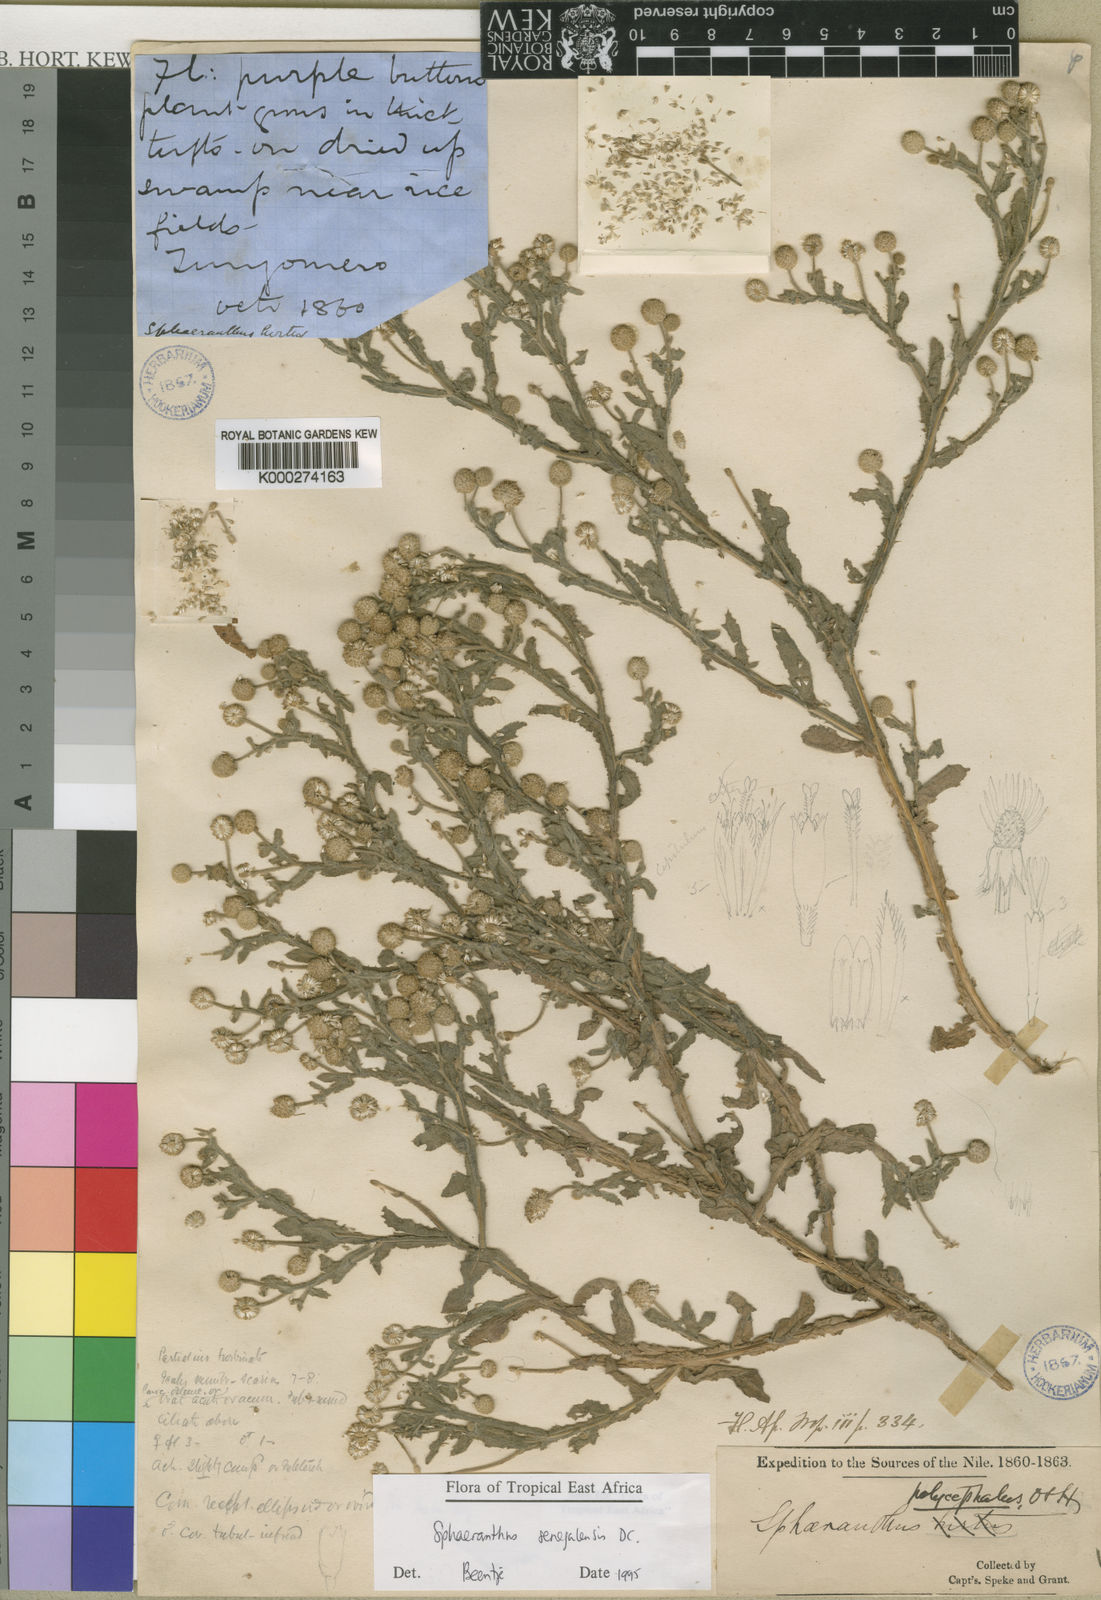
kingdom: Plantae
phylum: Tracheophyta
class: Magnoliopsida
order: Asterales
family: Asteraceae
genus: Sphaeranthus
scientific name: Sphaeranthus senegalensis
